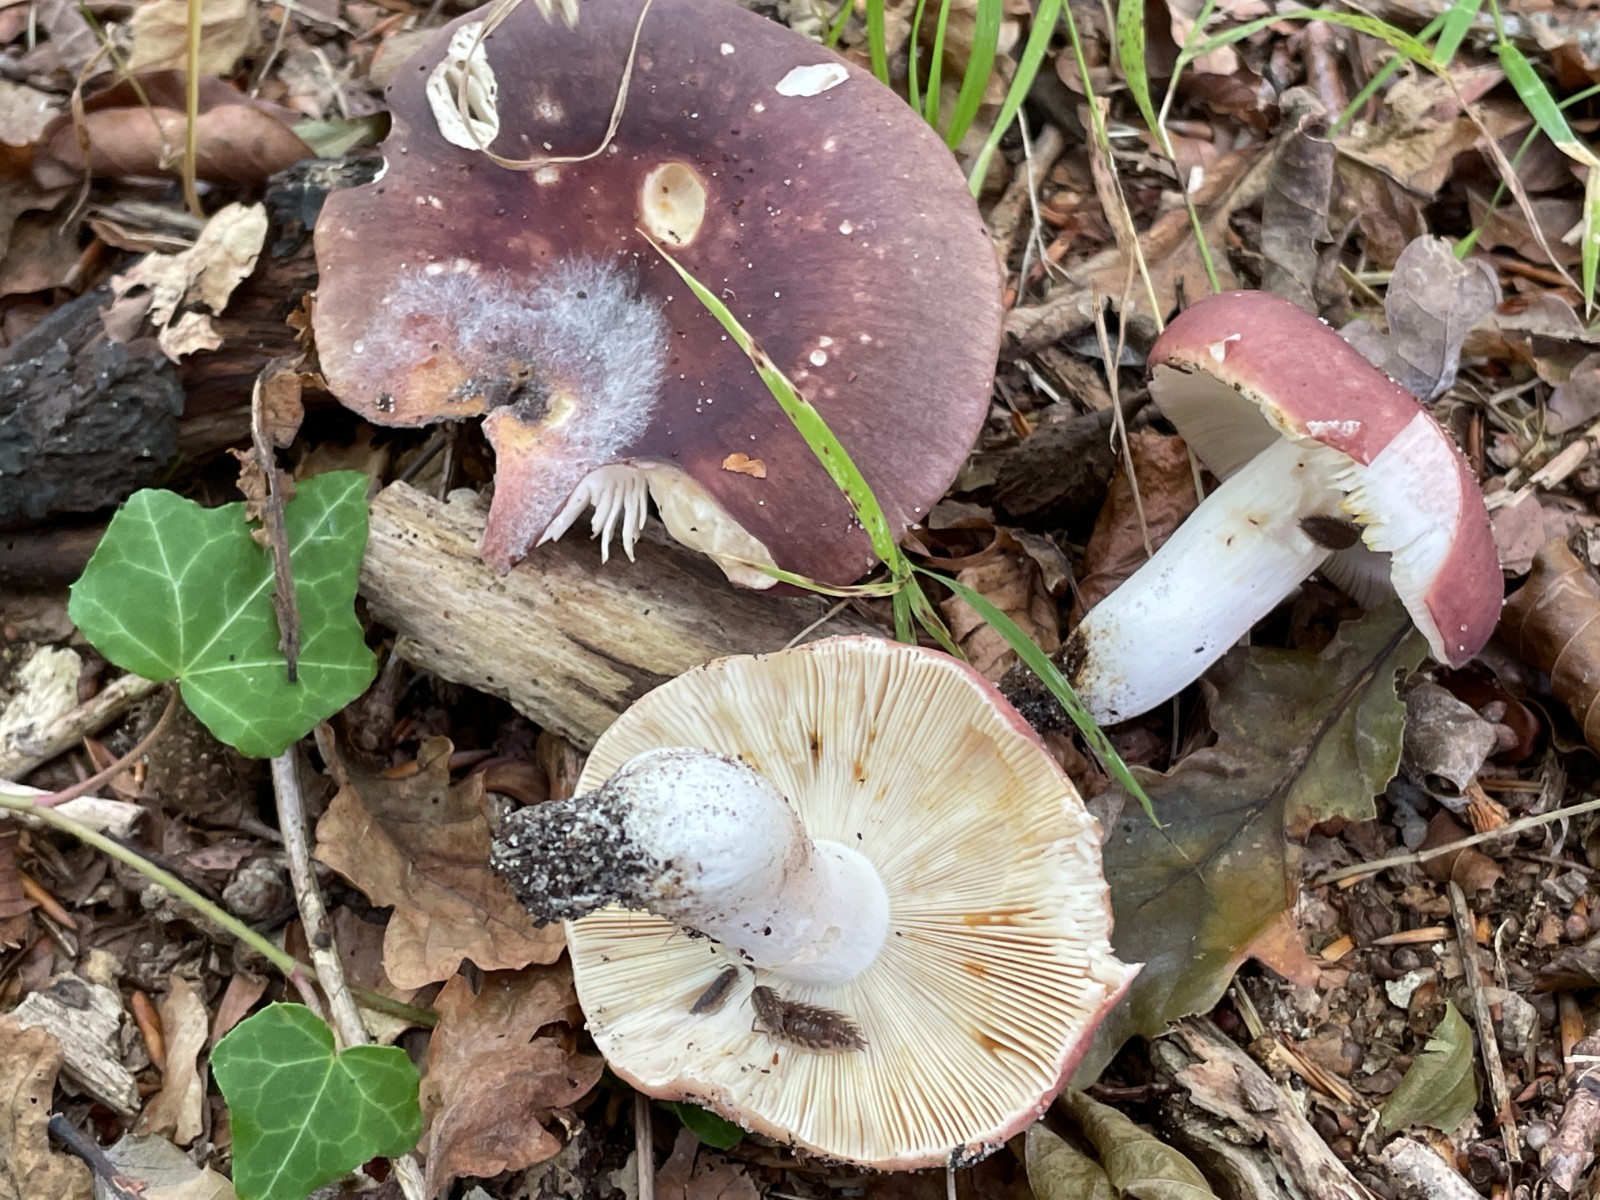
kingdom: Fungi
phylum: Basidiomycota
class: Agaricomycetes
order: Russulales
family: Russulaceae
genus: Russula
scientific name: Russula vesca
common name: spiselig skørhat
